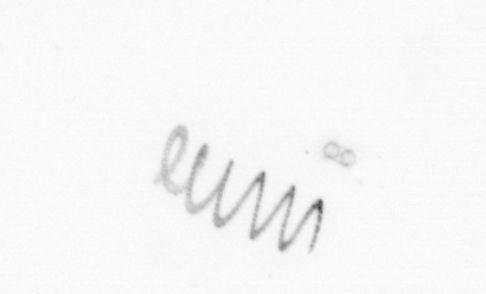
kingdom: Chromista
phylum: Ochrophyta
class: Bacillariophyceae
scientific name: Bacillariophyceae
